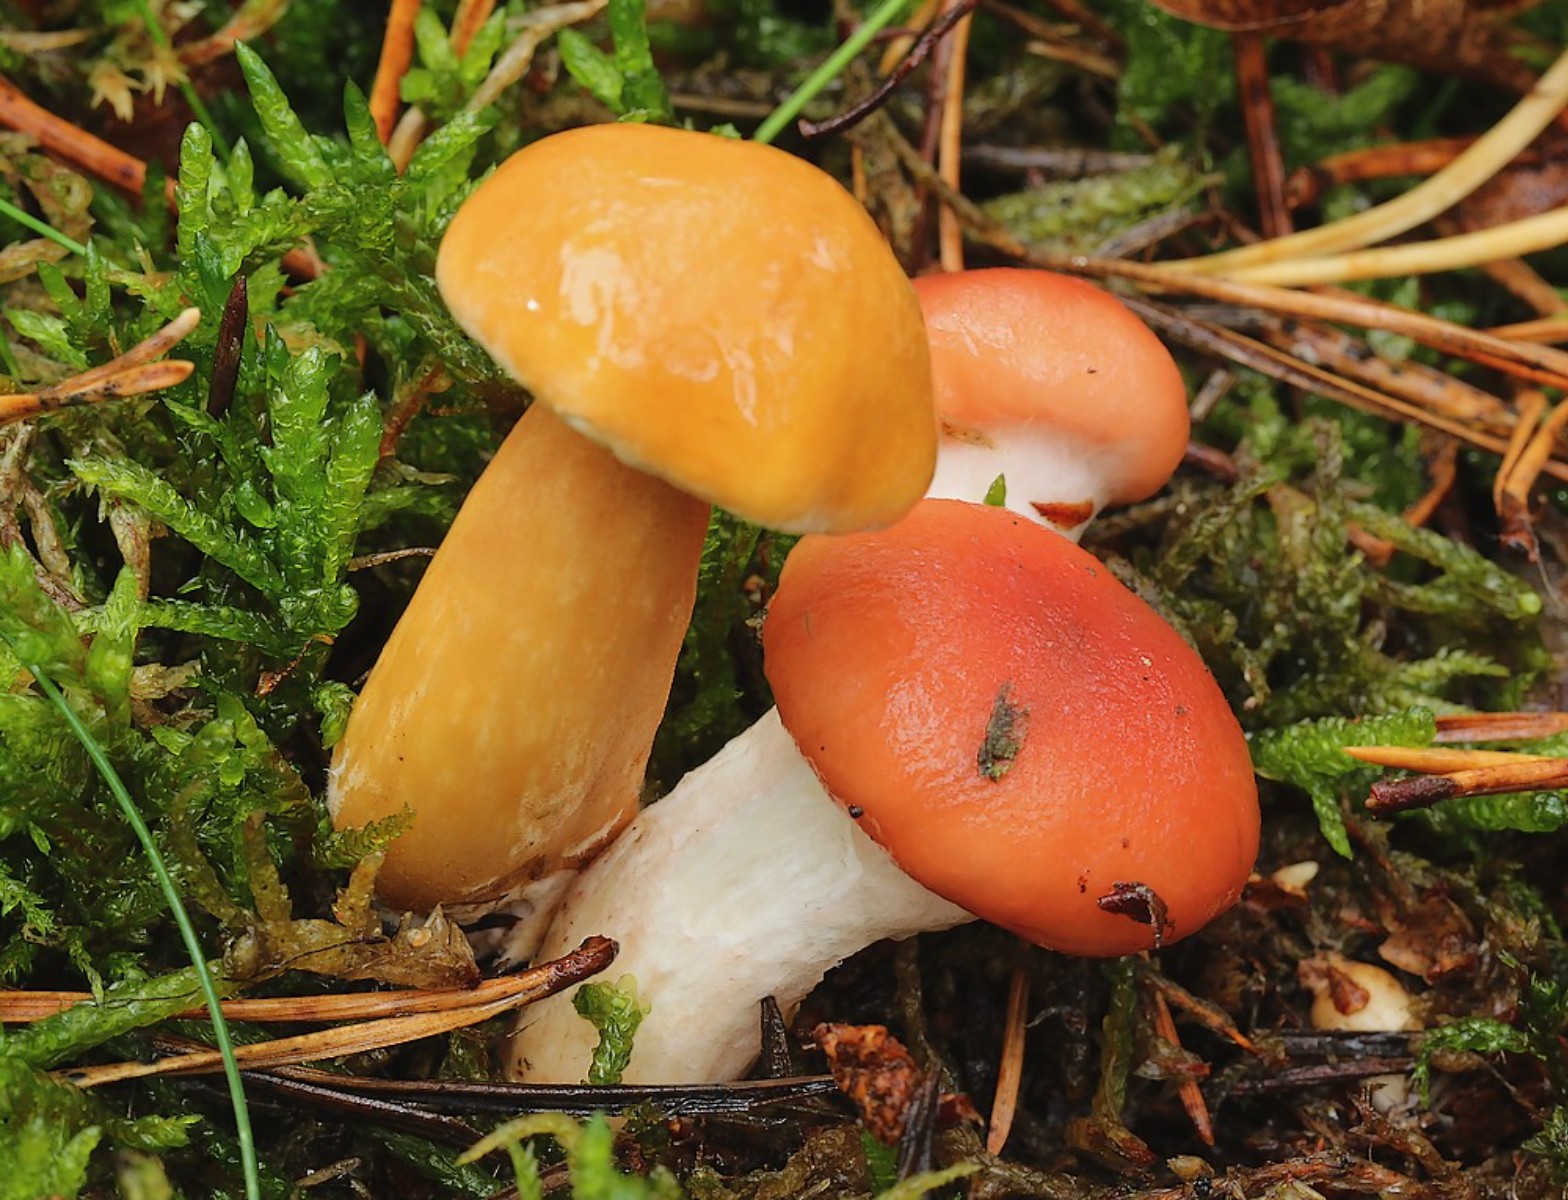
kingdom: Fungi
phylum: Basidiomycota
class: Agaricomycetes
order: Boletales
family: Gomphidiaceae
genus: Gomphidius
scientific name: Gomphidius roseus
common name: rosenrød slimslør
